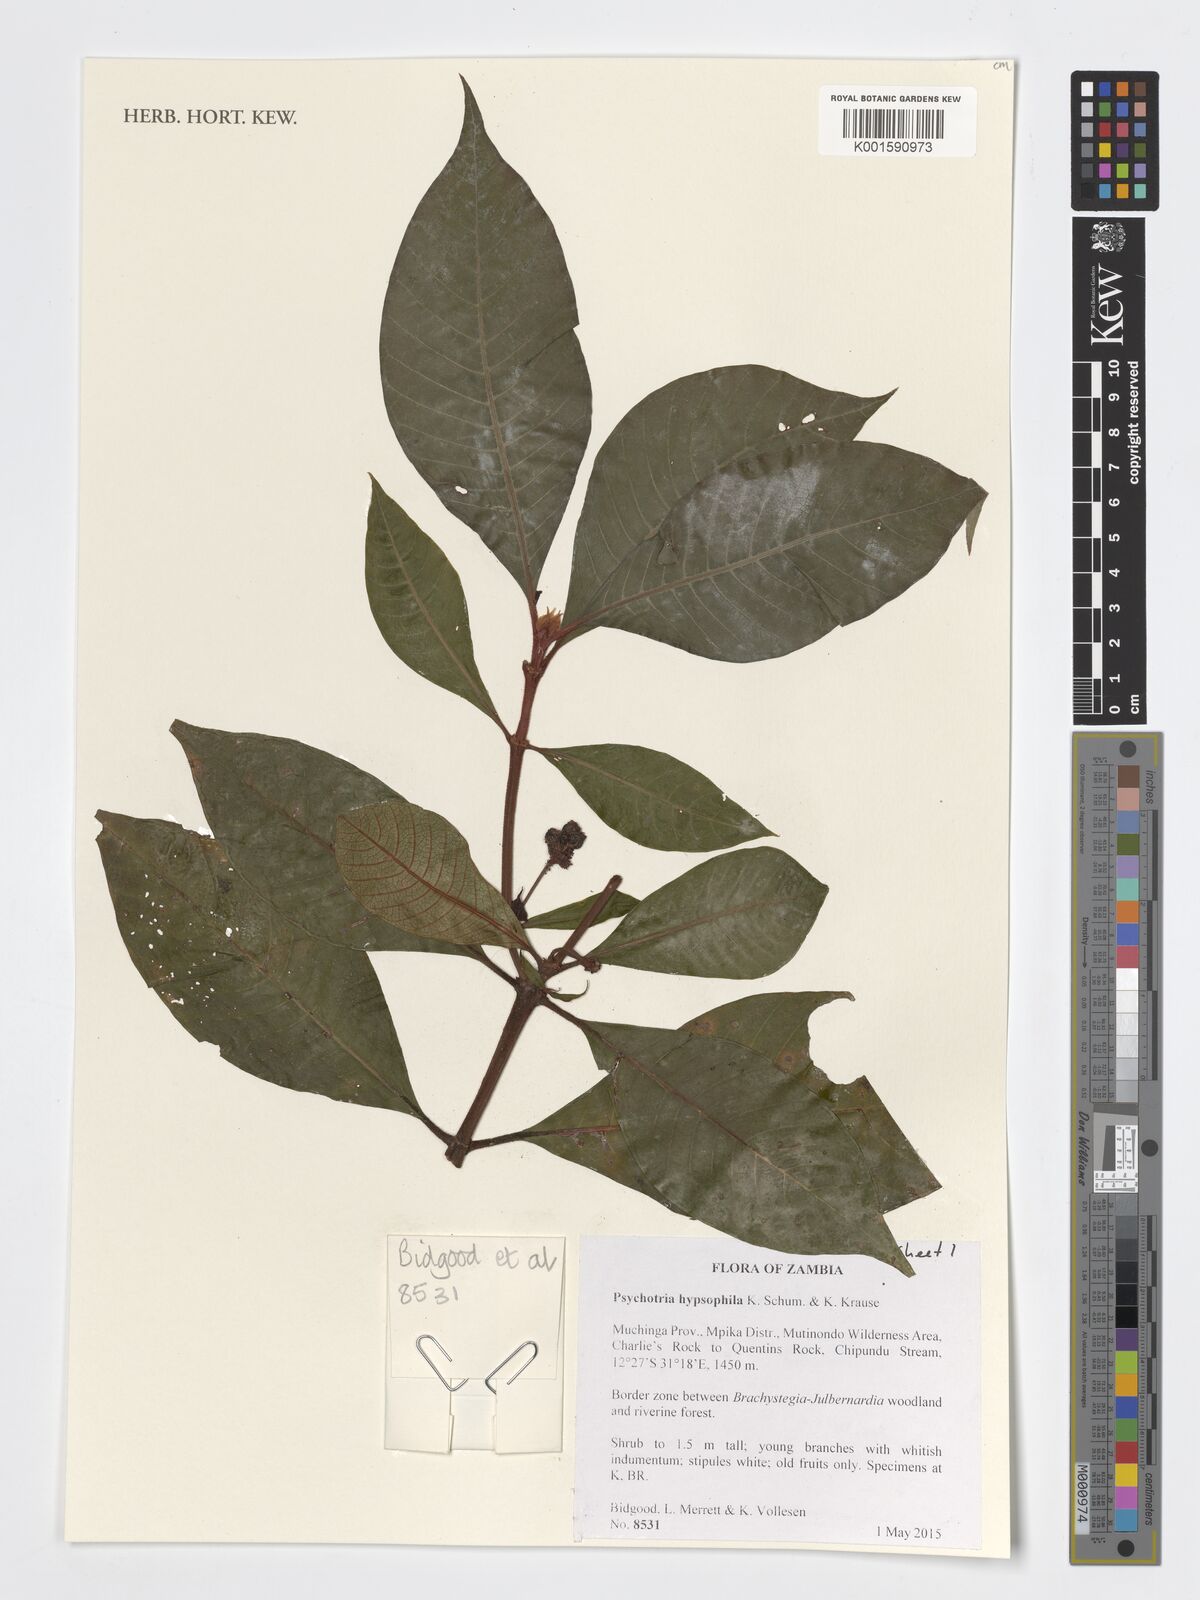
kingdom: Plantae
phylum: Tracheophyta
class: Magnoliopsida
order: Gentianales
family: Rubiaceae
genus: Psychotria
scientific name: Psychotria peduncularis
